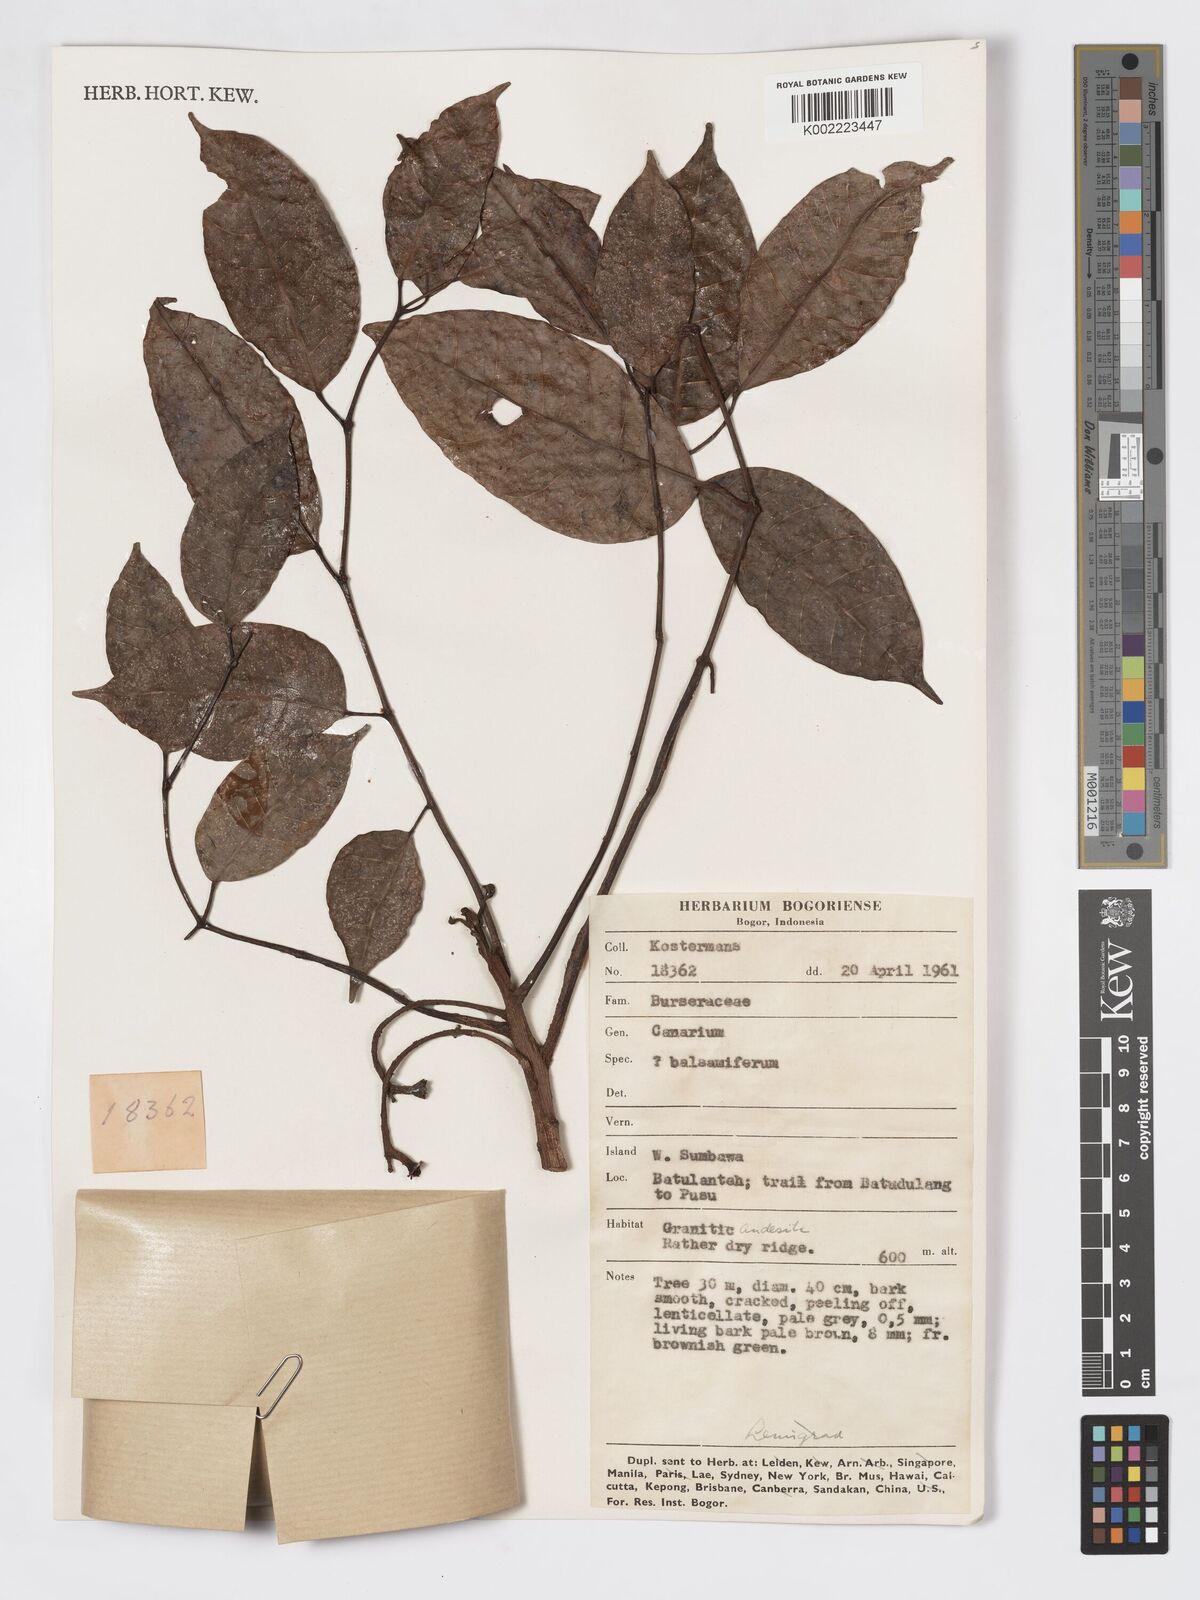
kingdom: Plantae
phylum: Tracheophyta
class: Magnoliopsida
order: Sapindales
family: Burseraceae
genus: Canarium
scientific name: Canarium
